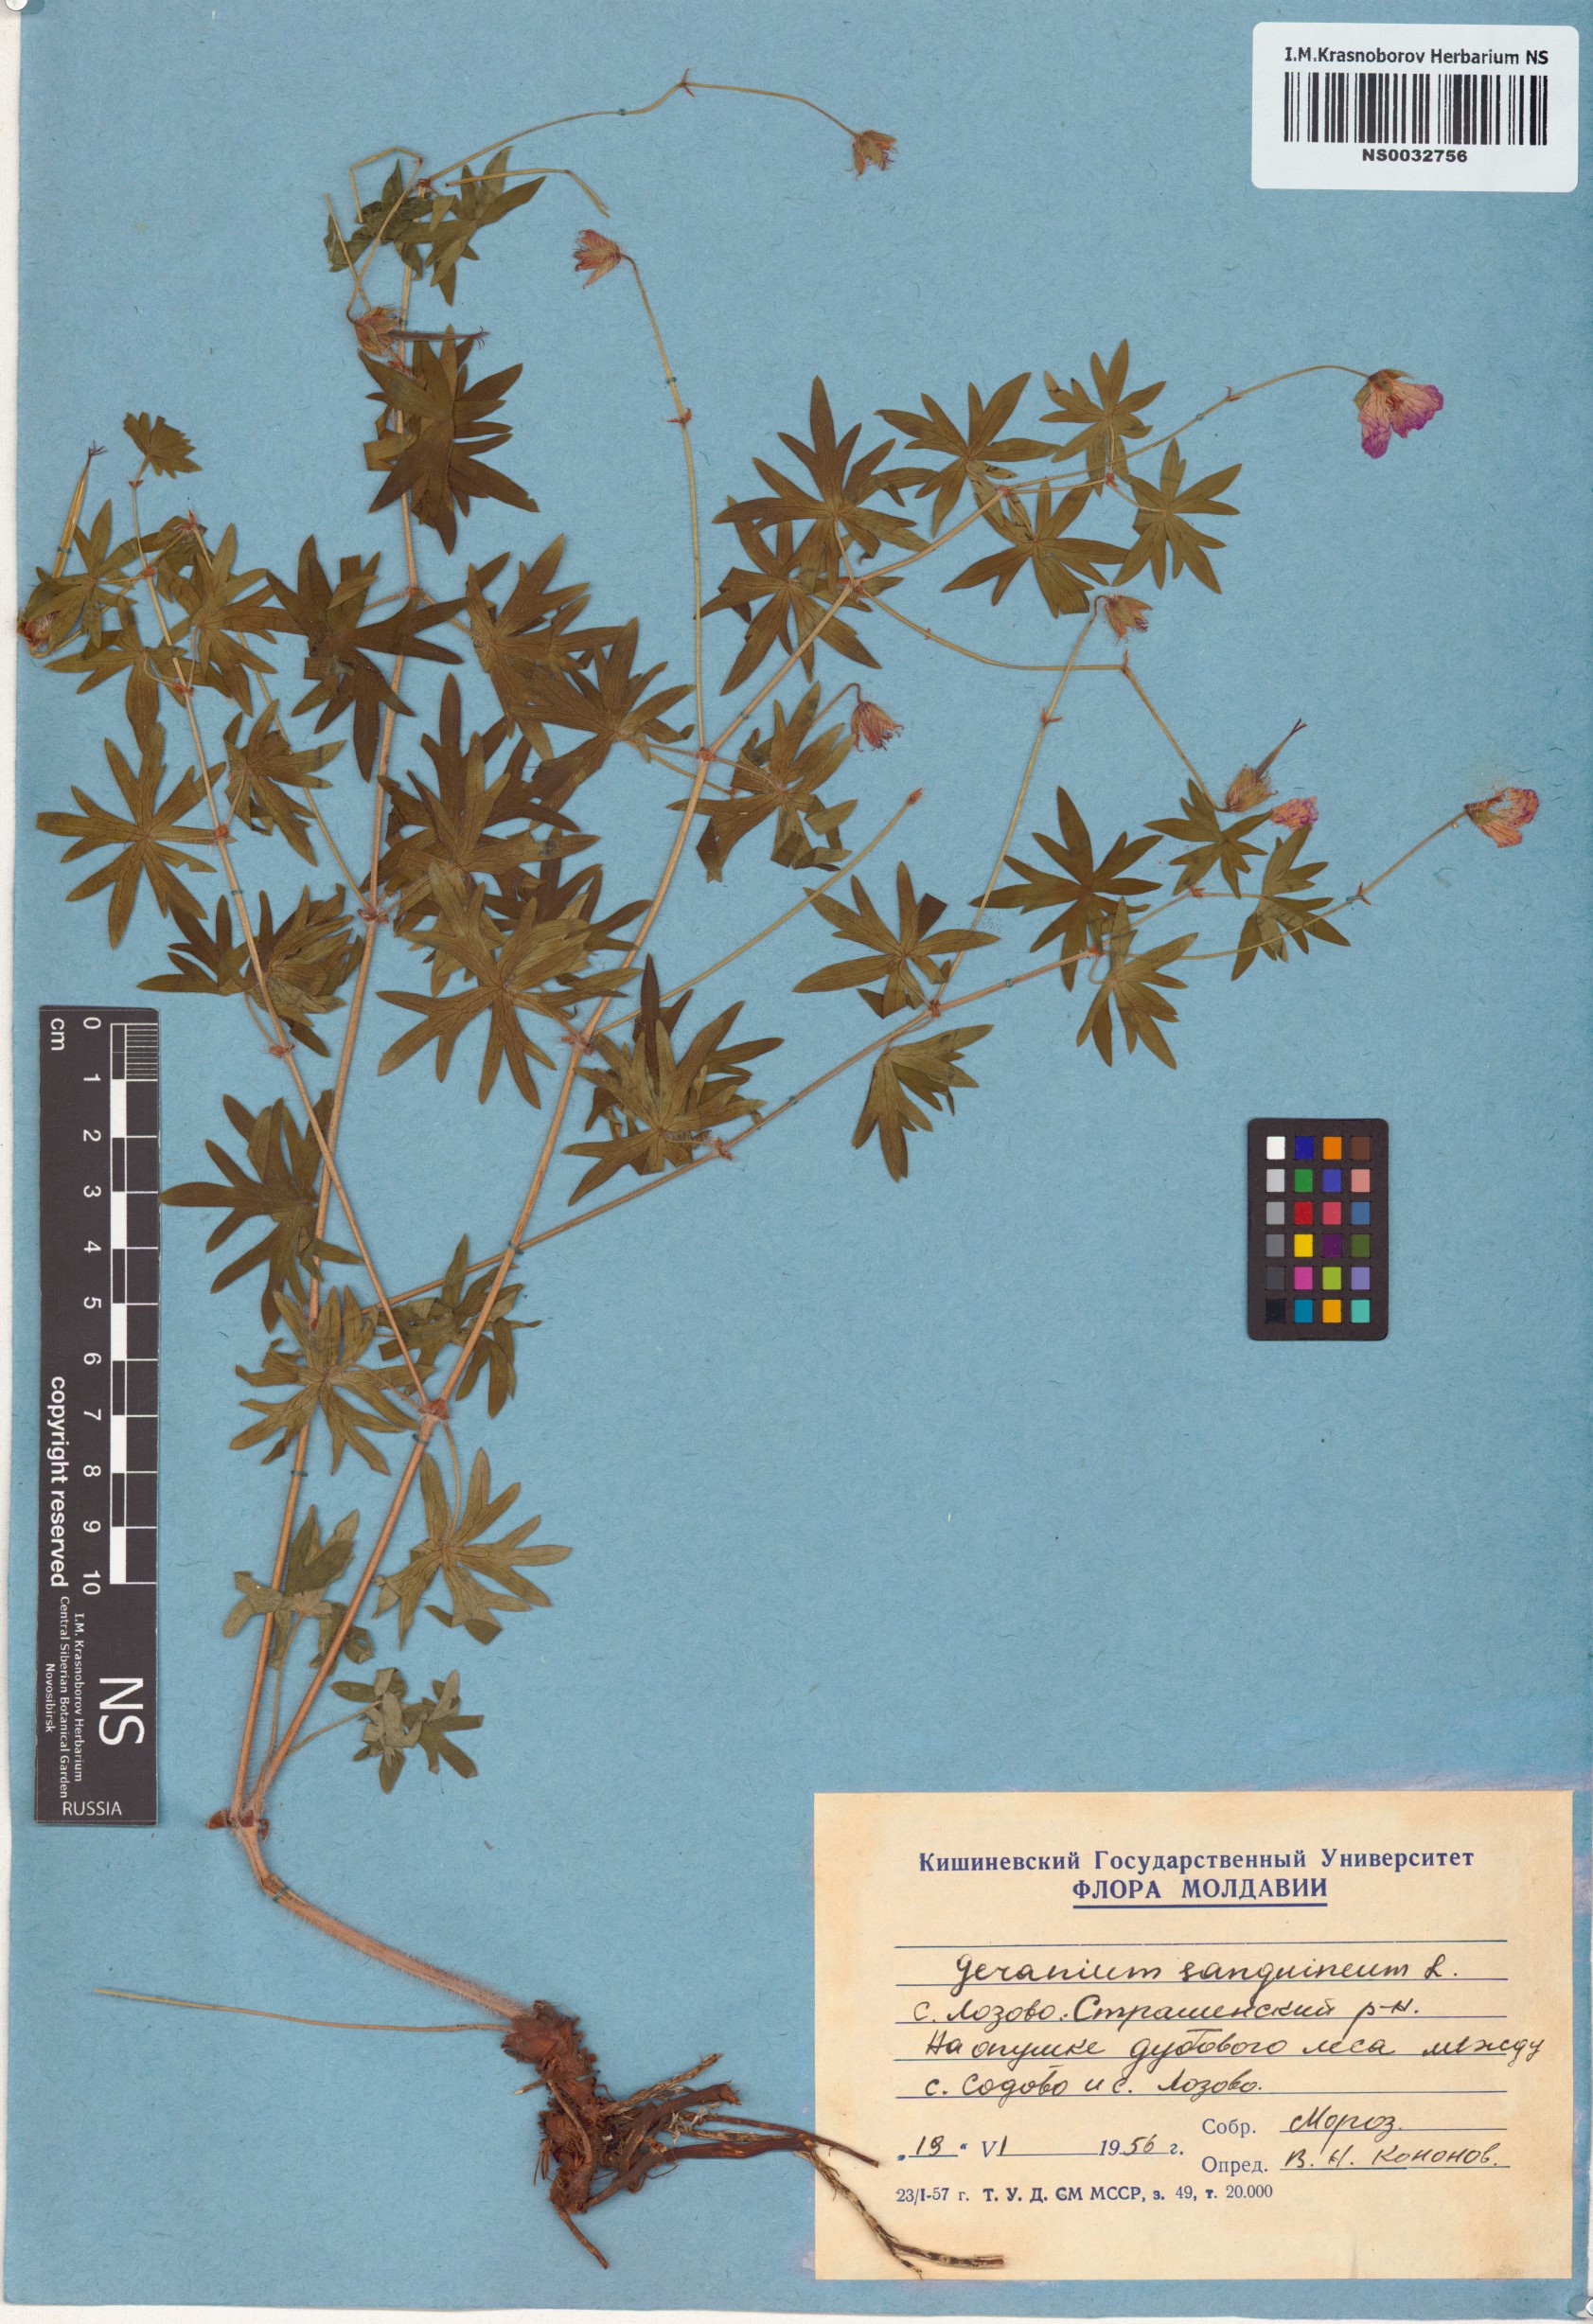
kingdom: Plantae
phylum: Tracheophyta
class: Magnoliopsida
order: Geraniales
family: Geraniaceae
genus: Geranium
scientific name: Geranium sanguineum
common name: Bloody crane's-bill
